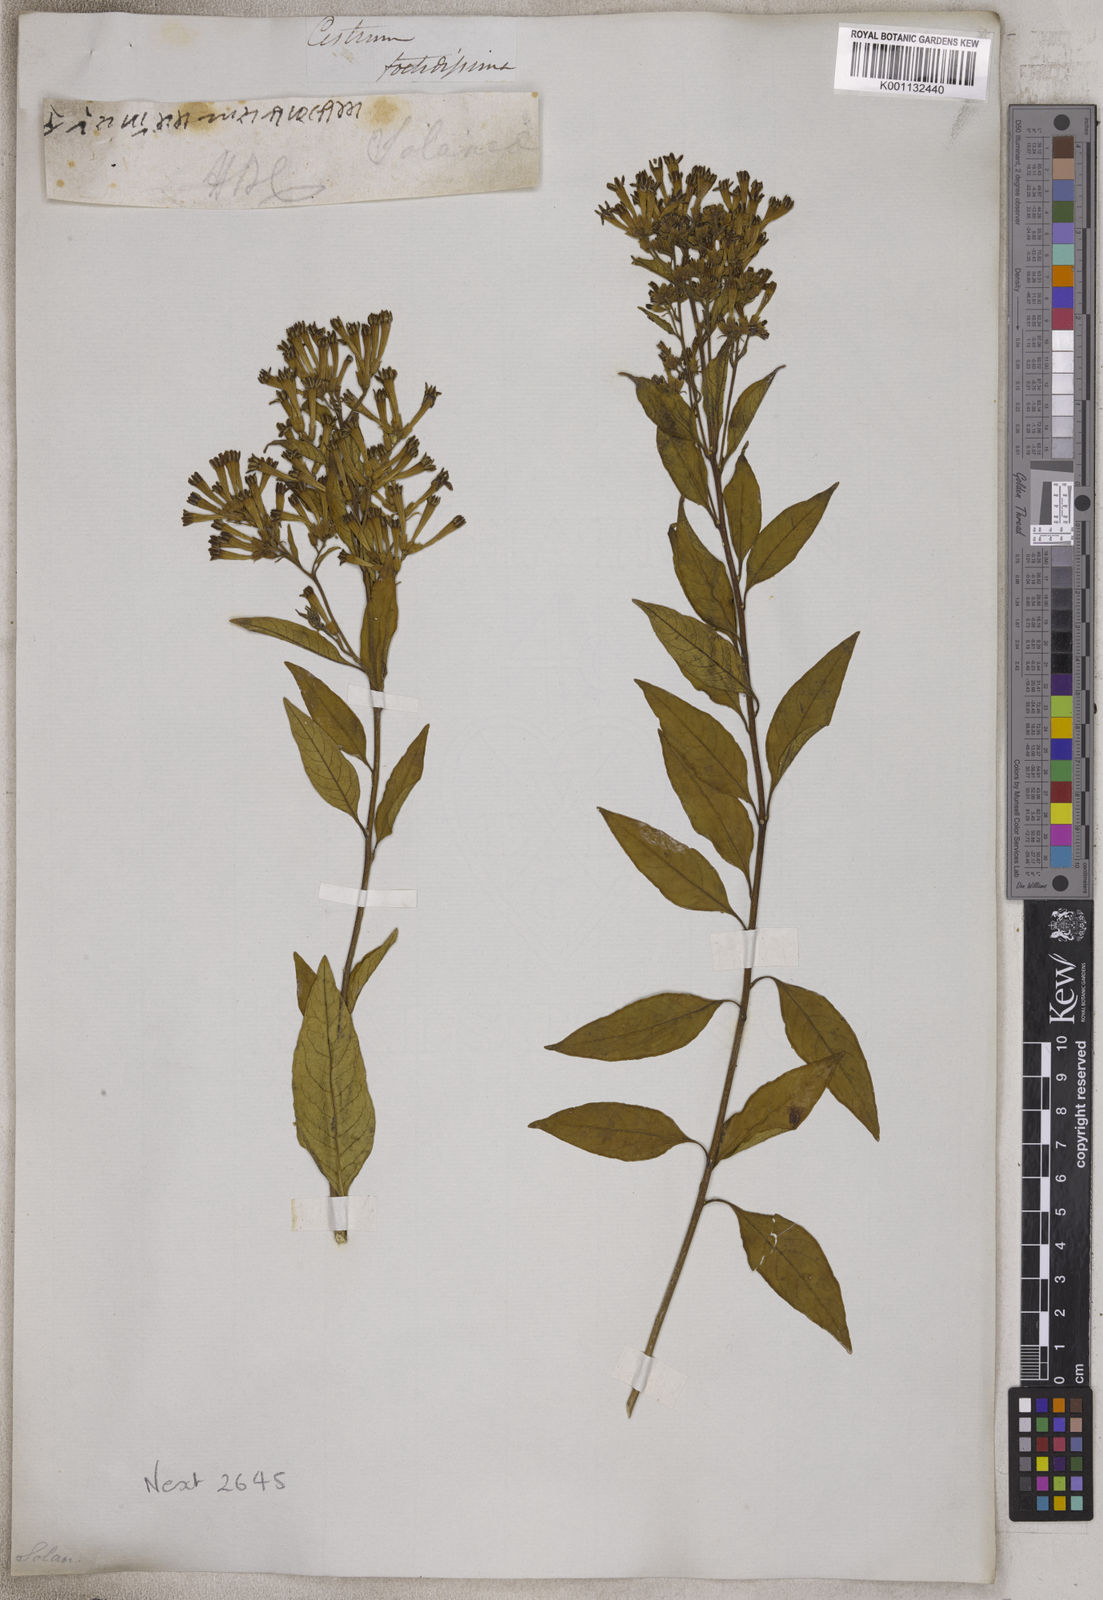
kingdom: Plantae
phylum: Tracheophyta
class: Magnoliopsida
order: Solanales
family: Solanaceae
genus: Cestrum
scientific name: Cestrum
